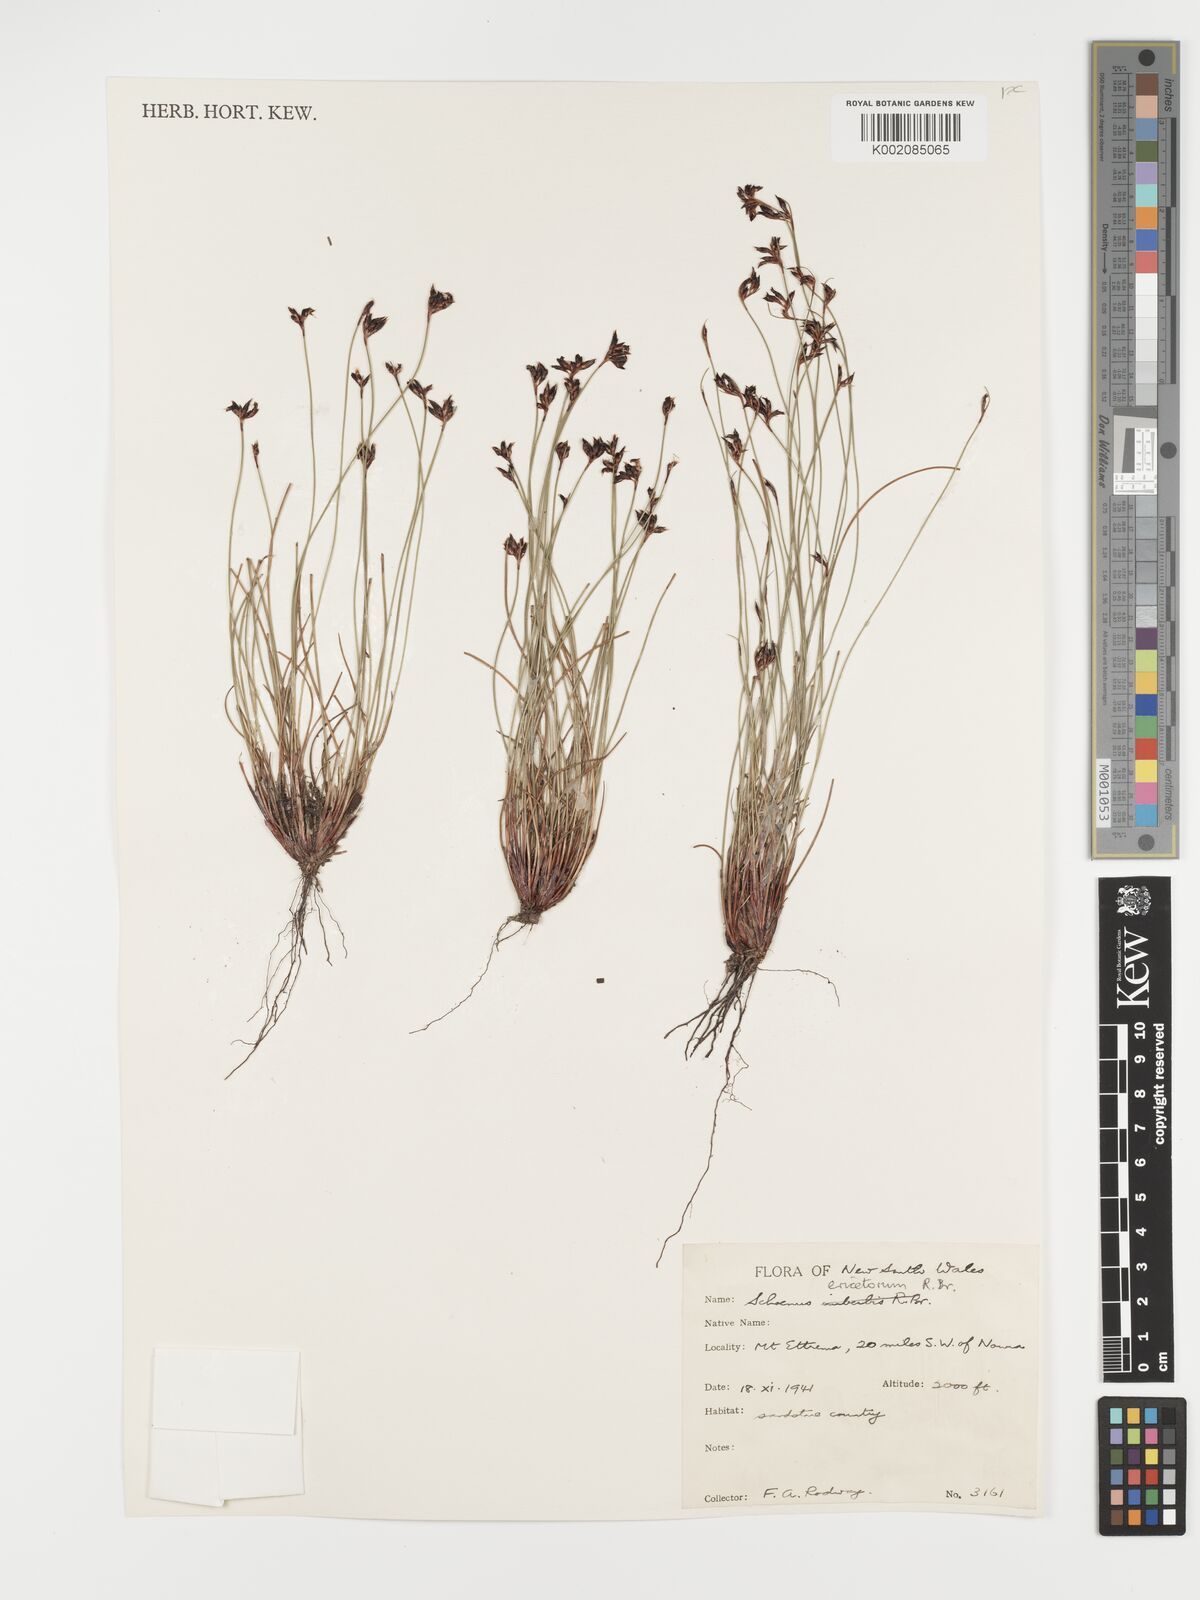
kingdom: Plantae
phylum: Tracheophyta
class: Liliopsida
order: Poales
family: Cyperaceae
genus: Schoenus
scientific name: Schoenus ericetorum
